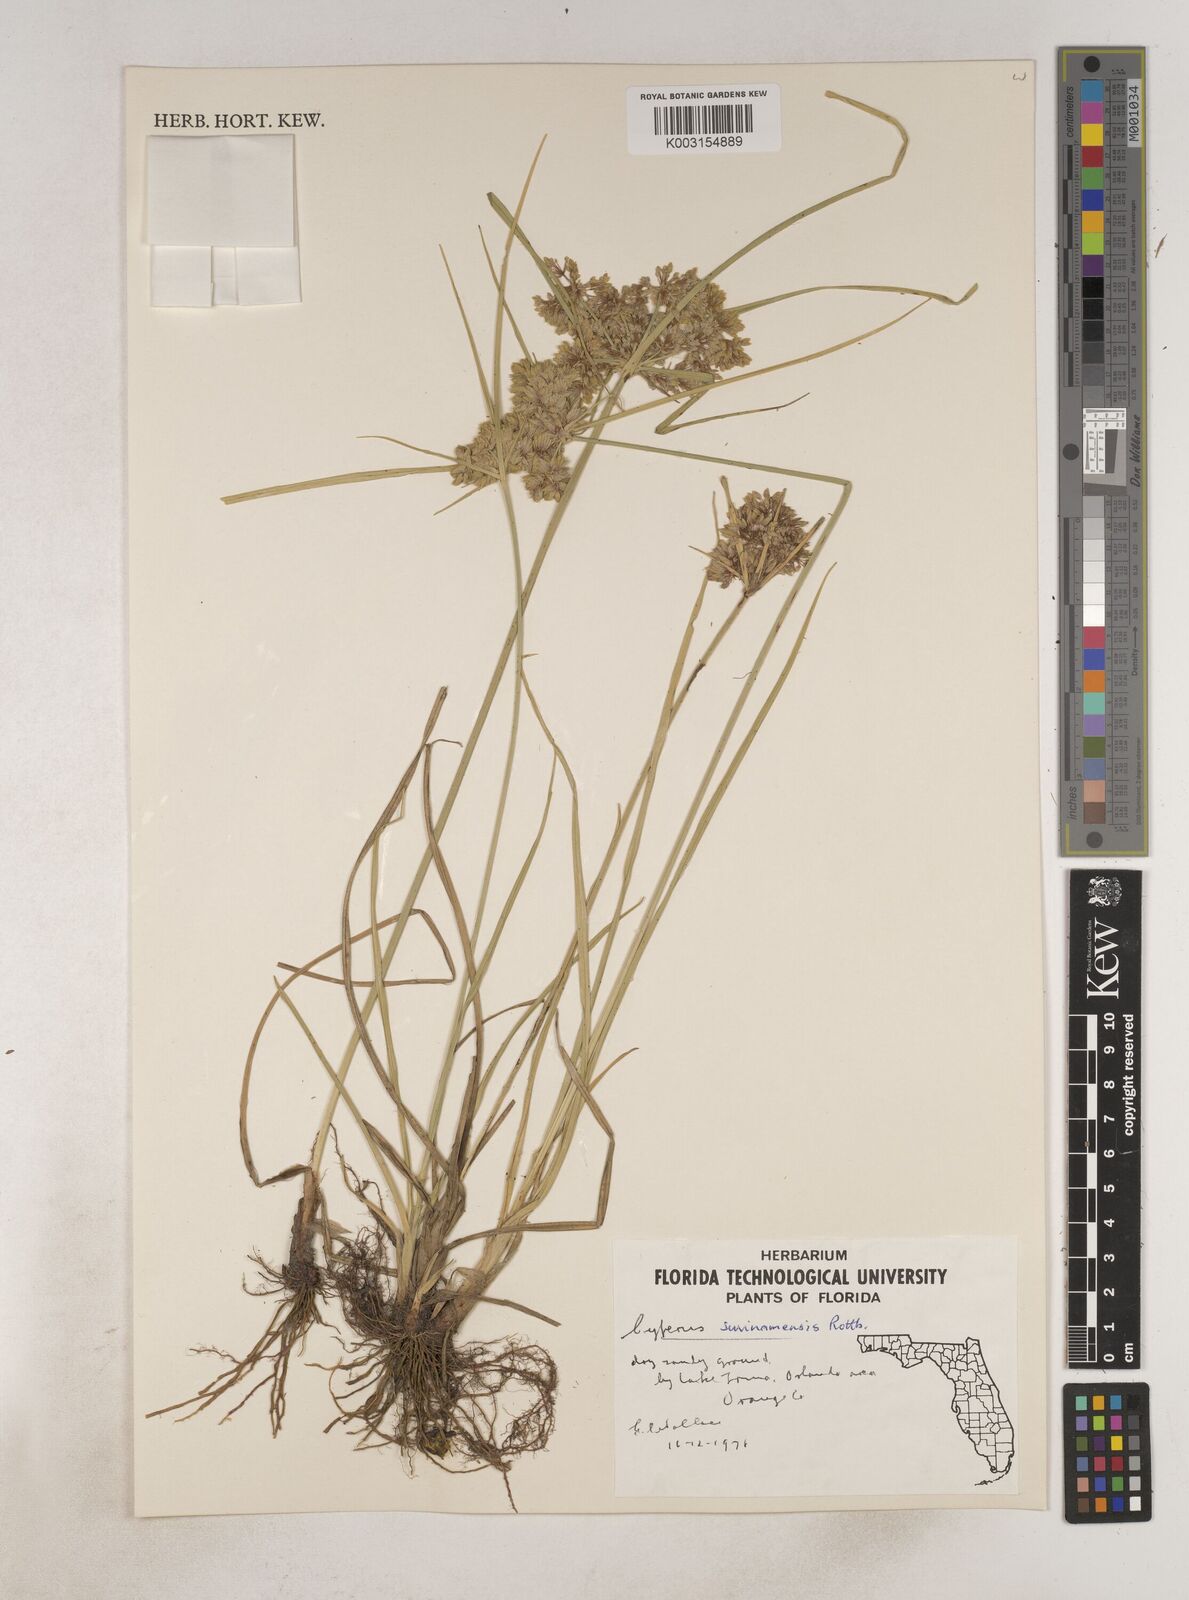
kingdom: Plantae
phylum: Tracheophyta
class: Liliopsida
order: Poales
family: Cyperaceae
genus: Cyperus
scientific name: Cyperus surinamensis
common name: Tropical flat sedge
